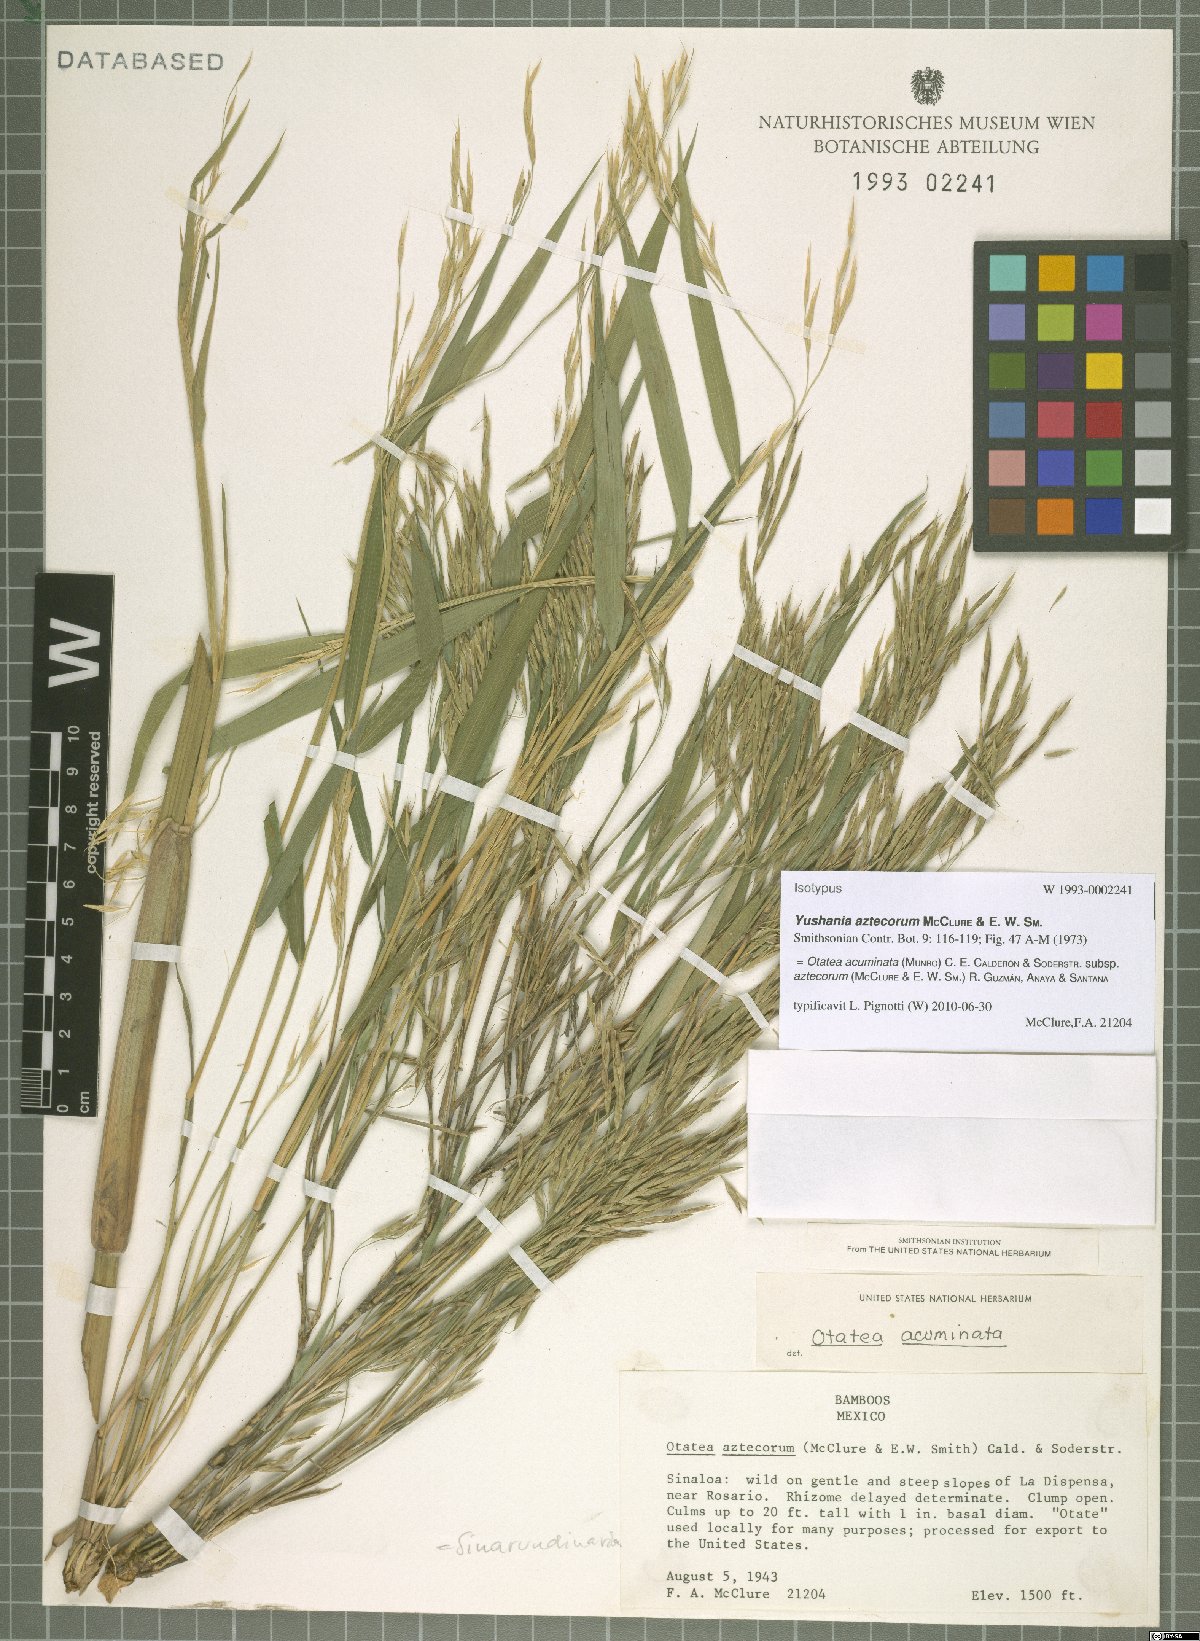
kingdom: Plantae
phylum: Tracheophyta
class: Liliopsida
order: Poales
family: Poaceae
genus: Otatea
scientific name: Otatea acuminata
